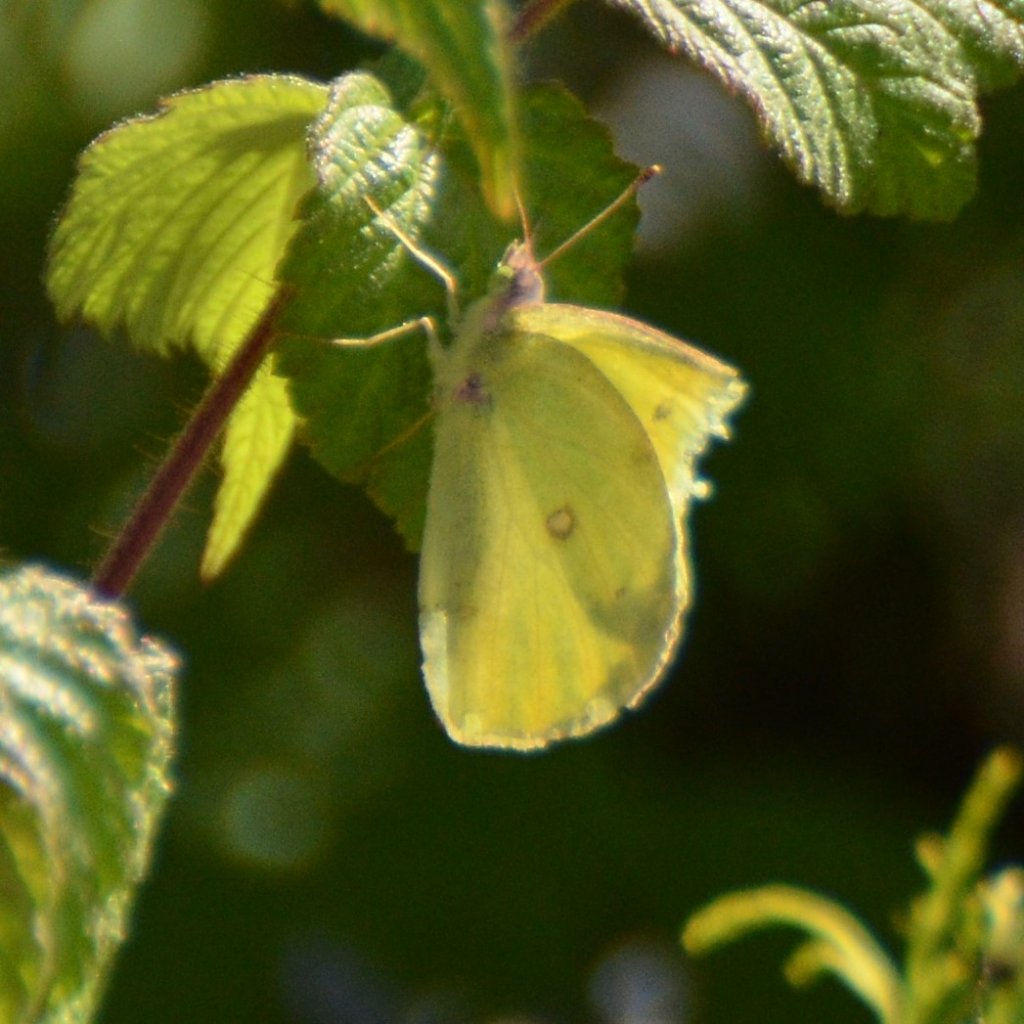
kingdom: Animalia
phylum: Arthropoda
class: Insecta
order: Lepidoptera
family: Pieridae
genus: Colias
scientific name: Colias interior
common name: Pink-edged Sulphur
